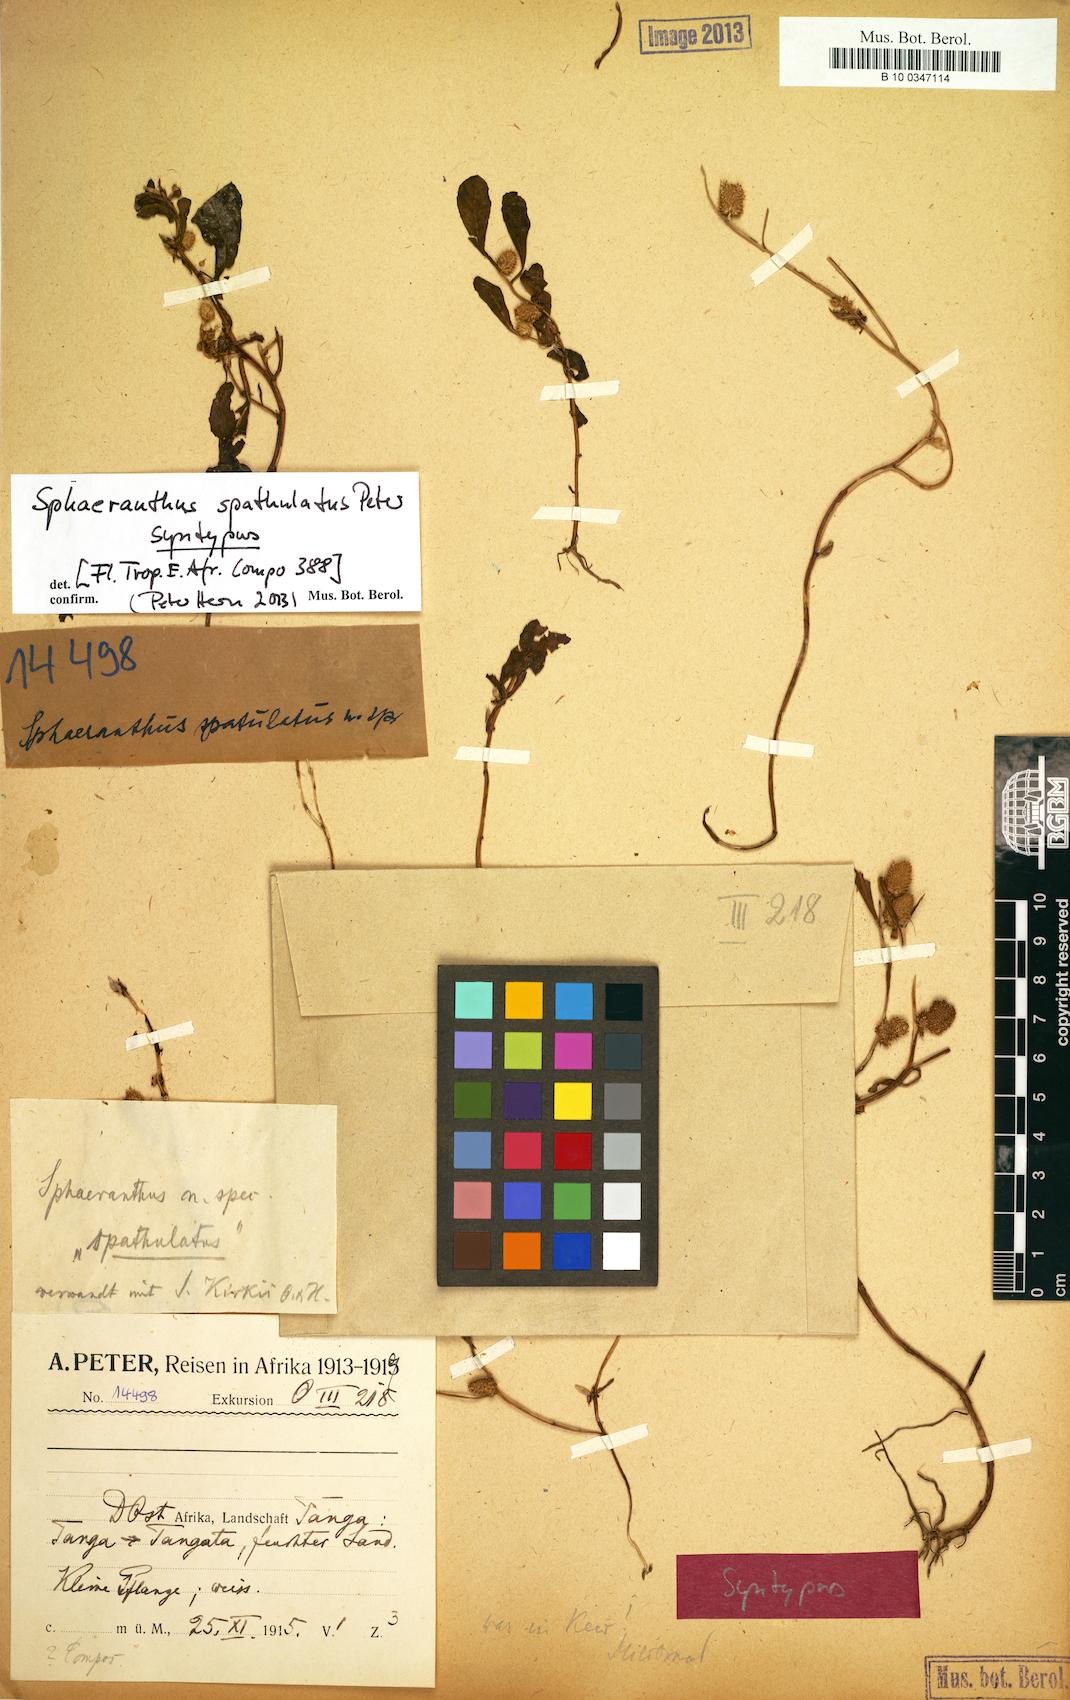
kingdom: Plantae
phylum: Tracheophyta
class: Magnoliopsida
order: Asterales
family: Asteraceae
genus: Sphaeranthus
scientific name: Sphaeranthus spathulatus
